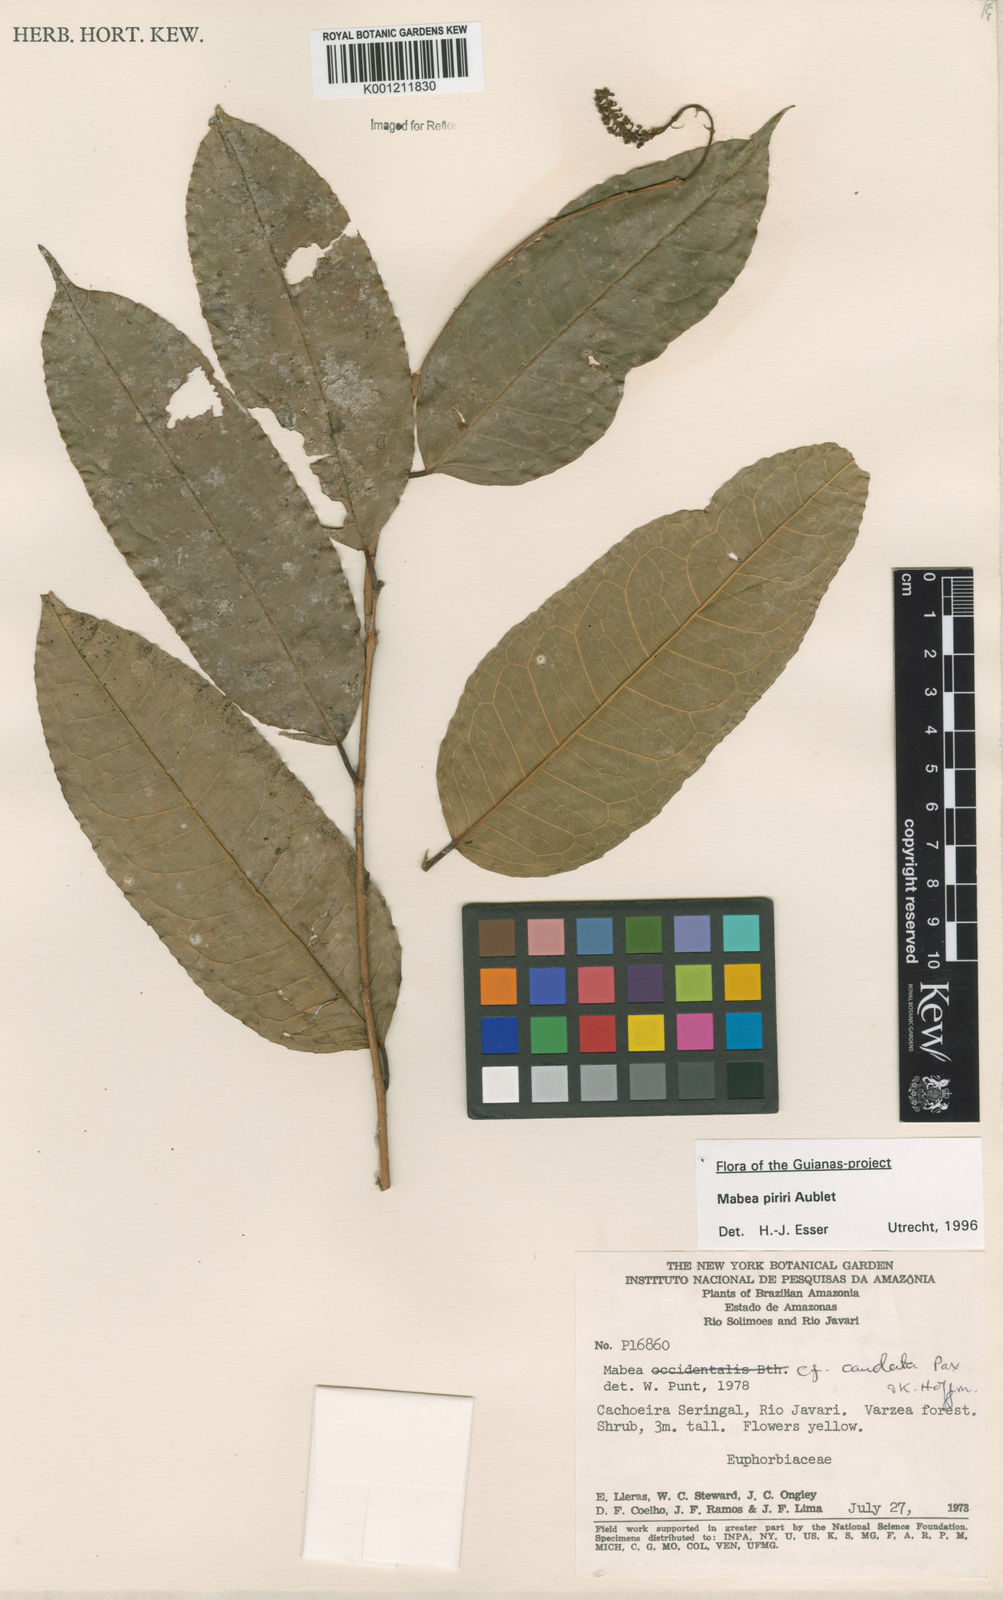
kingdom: Plantae
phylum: Tracheophyta
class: Magnoliopsida
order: Malpighiales
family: Euphorbiaceae
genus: Mabea
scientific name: Mabea piriri
